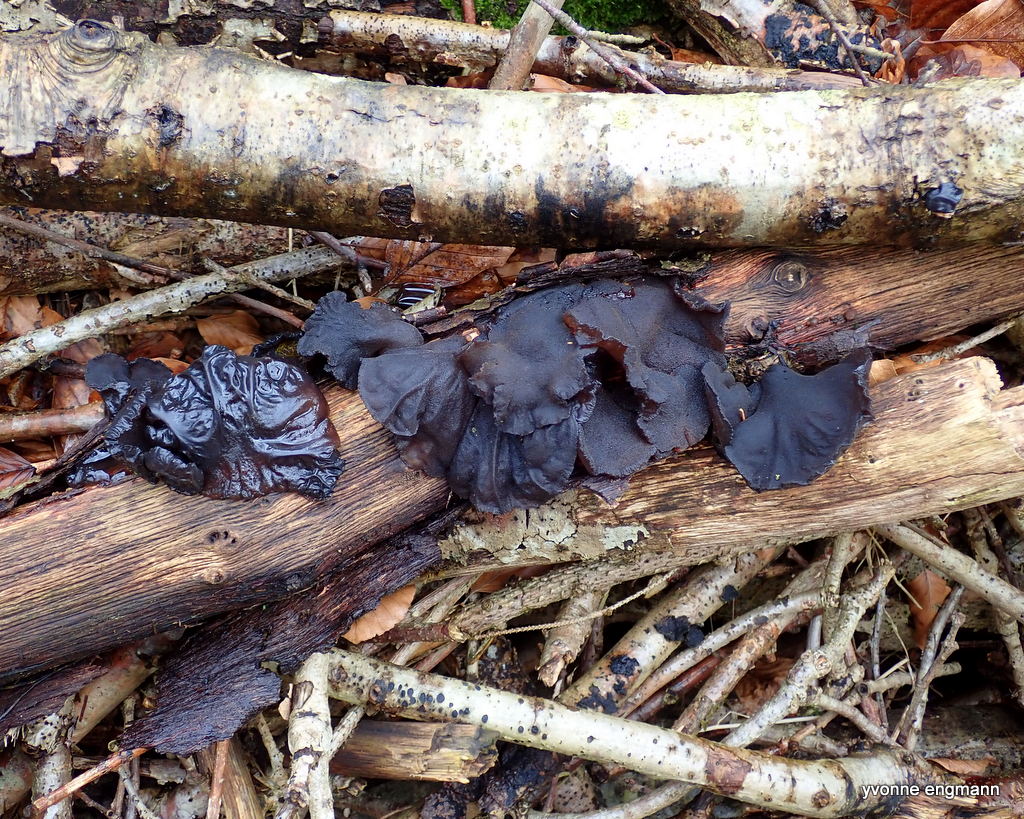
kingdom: Fungi
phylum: Basidiomycota
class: Agaricomycetes
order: Auriculariales
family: Auriculariaceae
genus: Exidia
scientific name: Exidia glandulosa
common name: ege-bævretop
